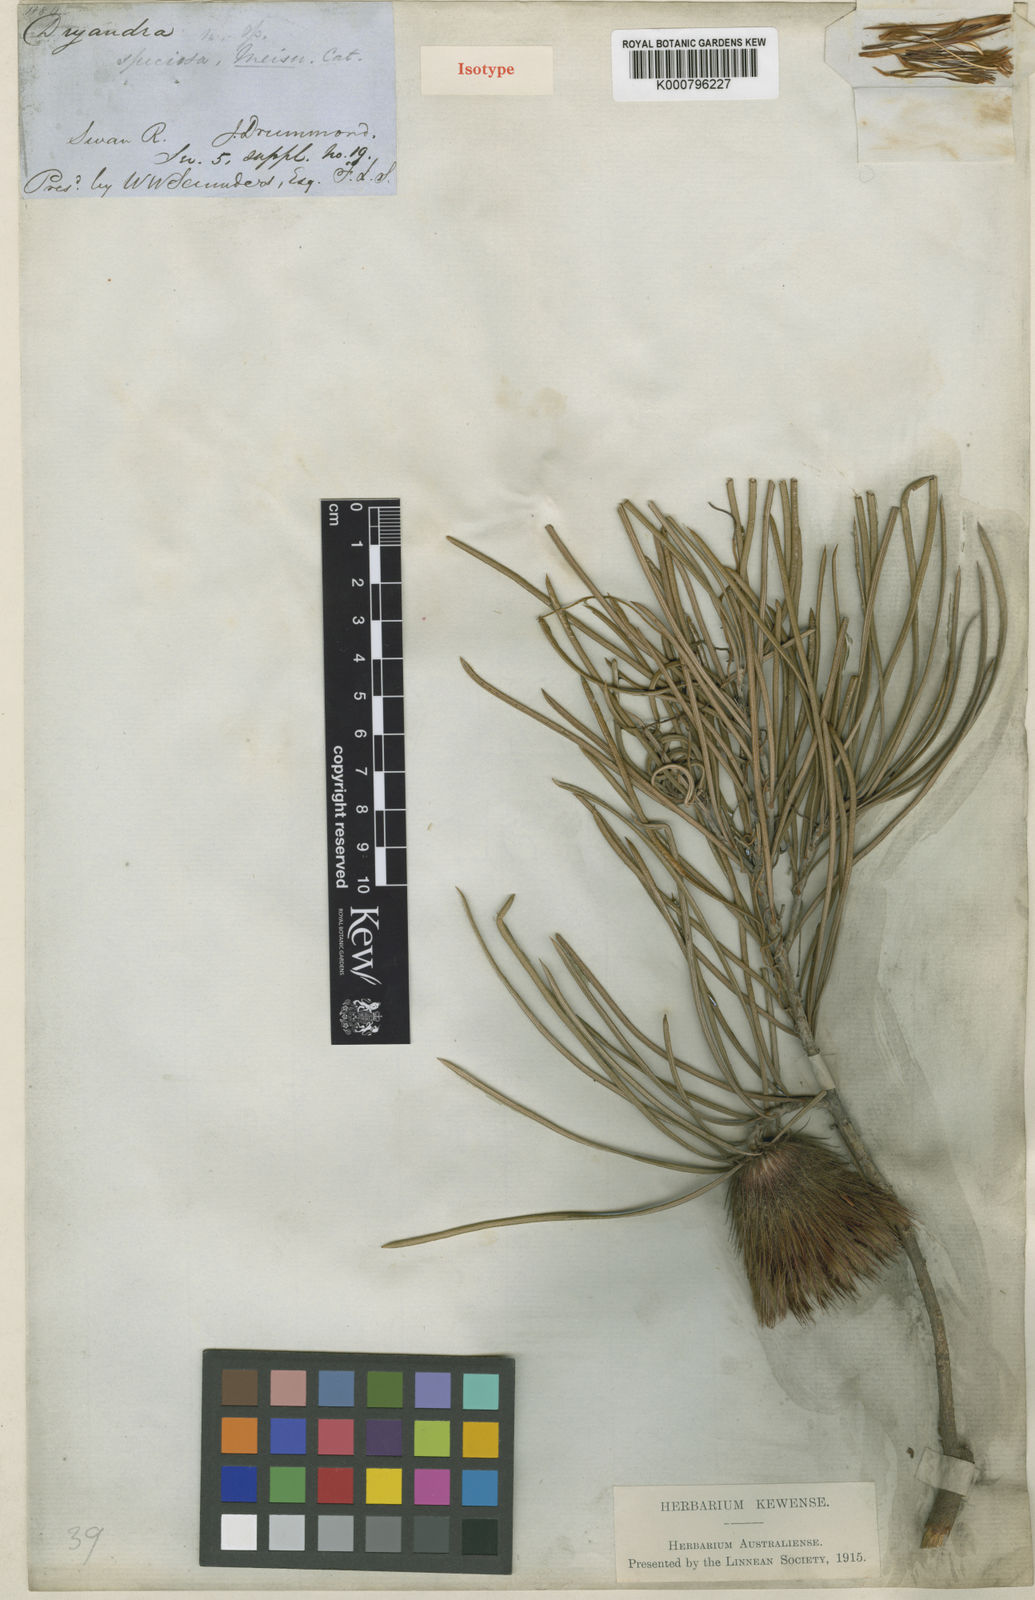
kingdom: Plantae
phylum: Tracheophyta
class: Magnoliopsida
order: Proteales
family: Proteaceae
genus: Banksia
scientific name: Banksia splendida
